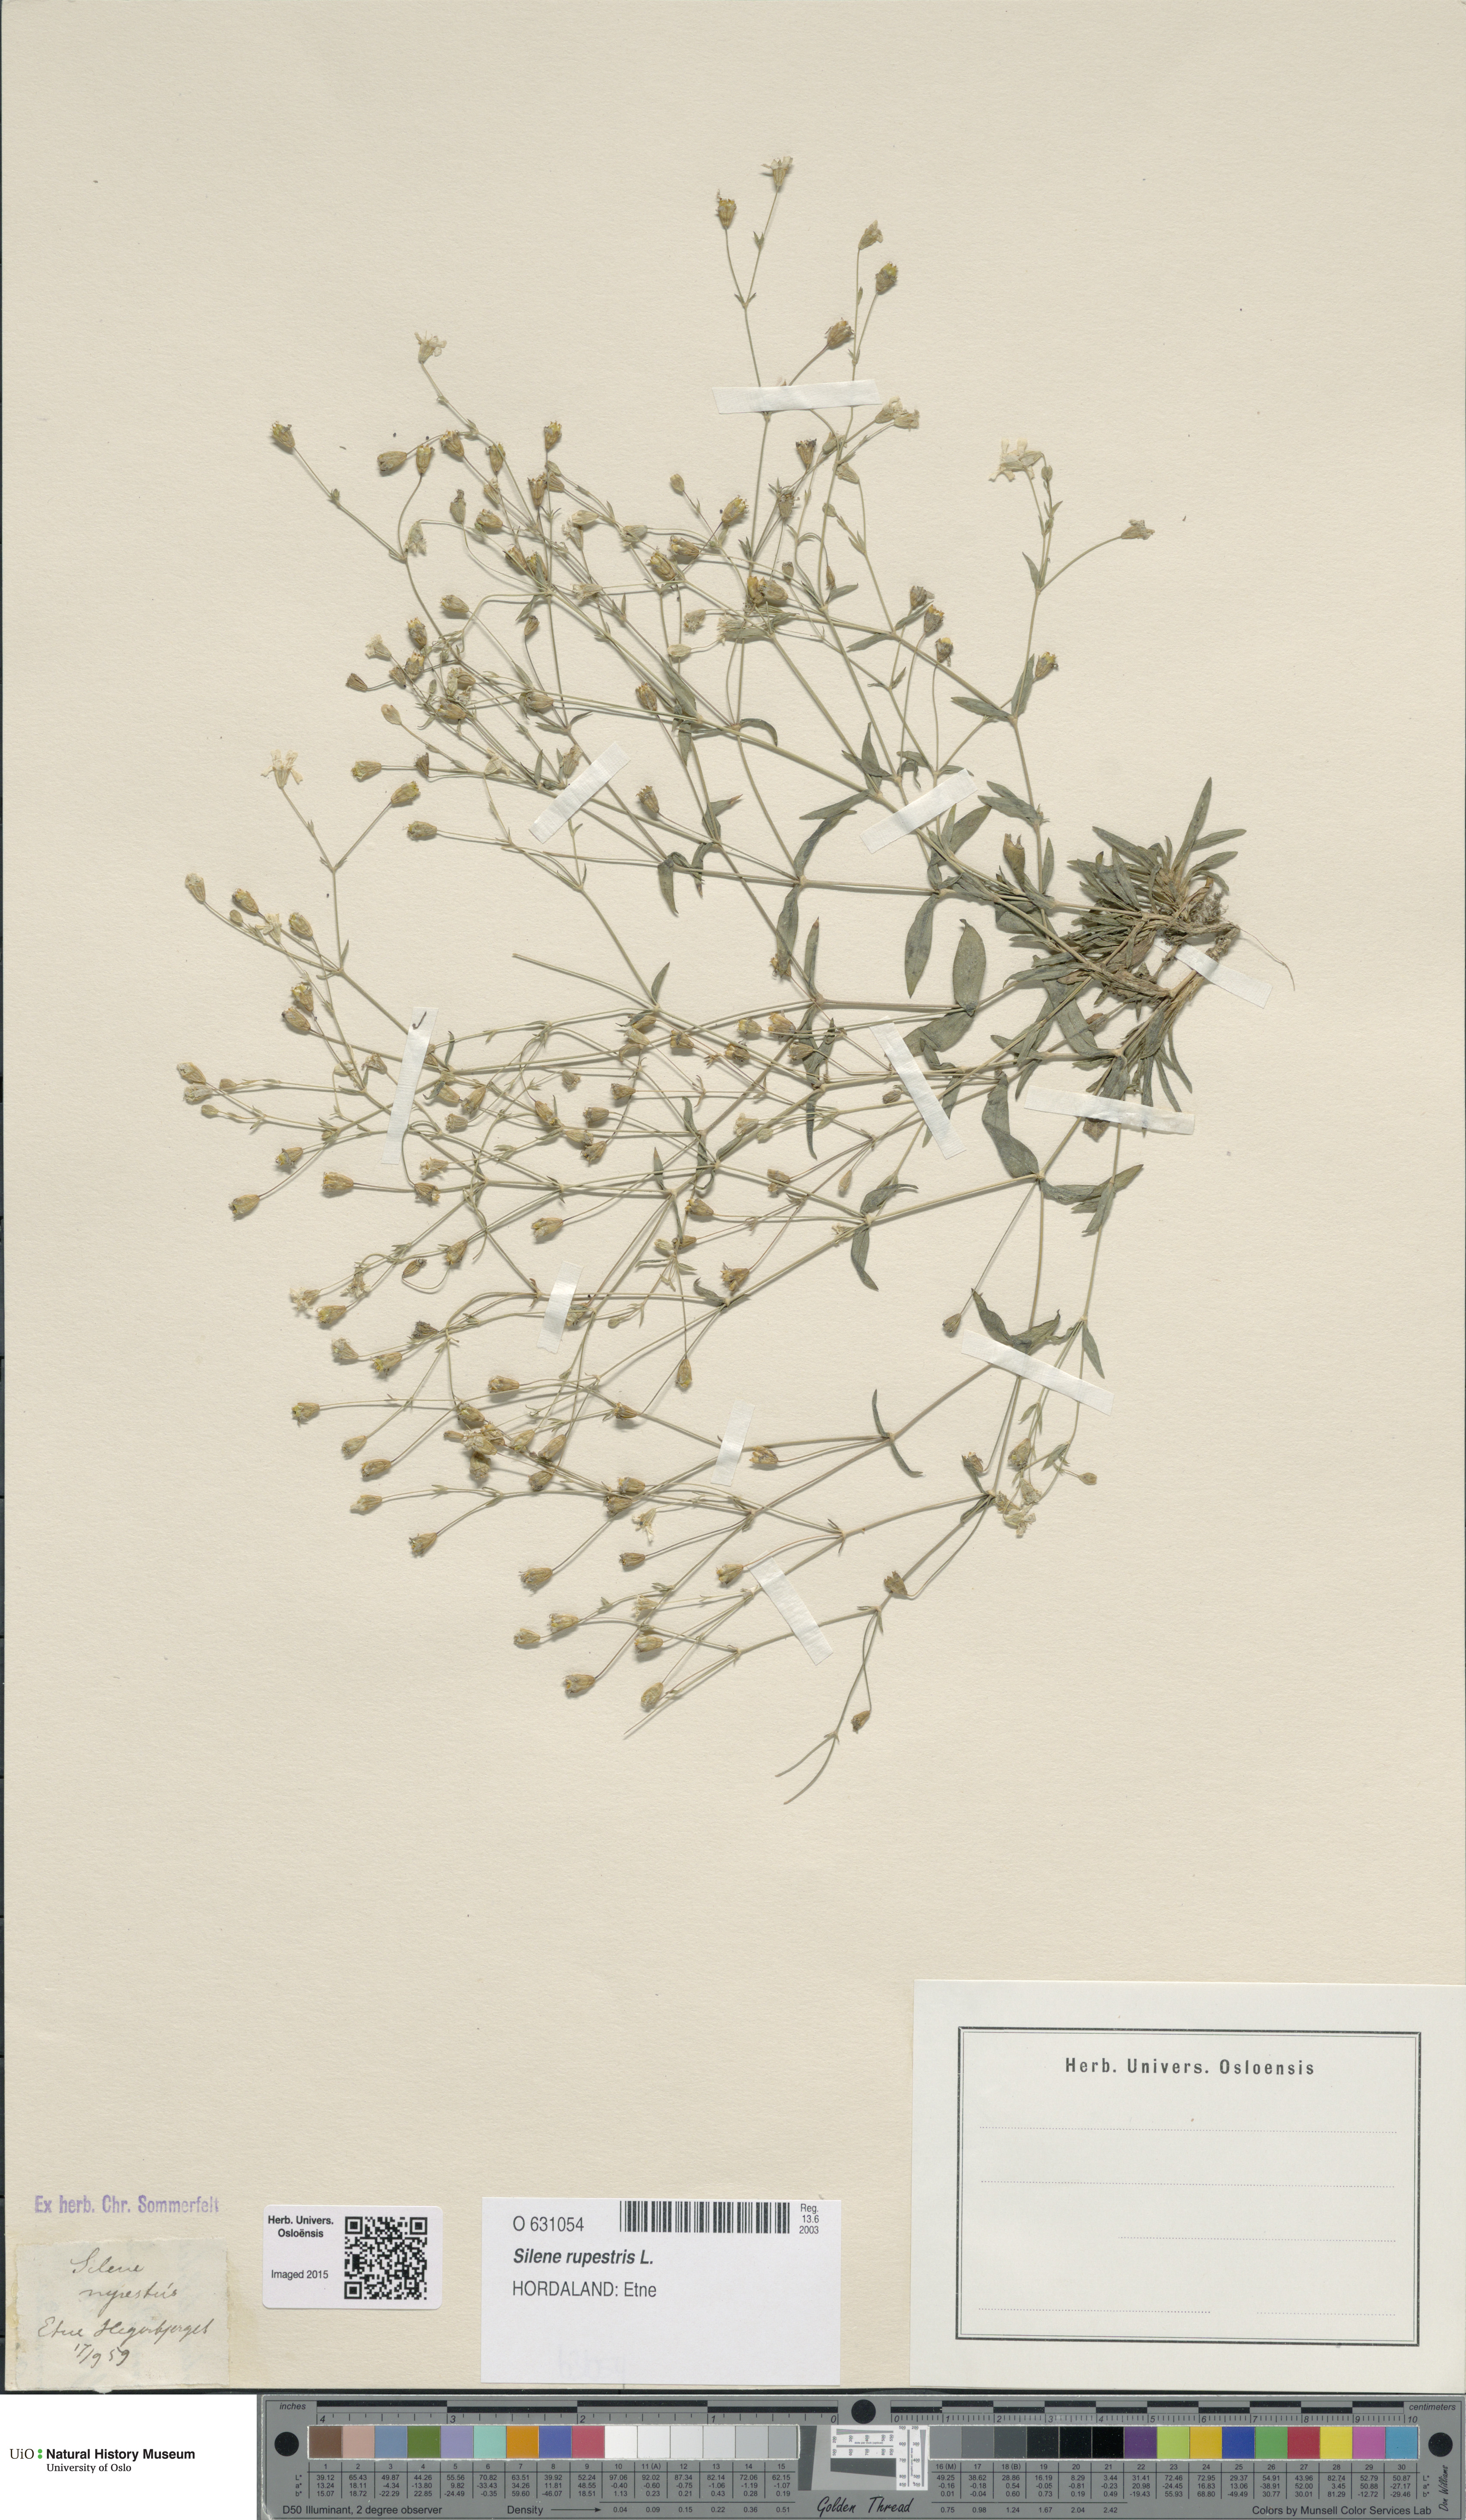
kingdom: Plantae
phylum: Tracheophyta
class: Magnoliopsida
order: Caryophyllales
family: Caryophyllaceae
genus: Atocion
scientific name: Atocion rupestre
